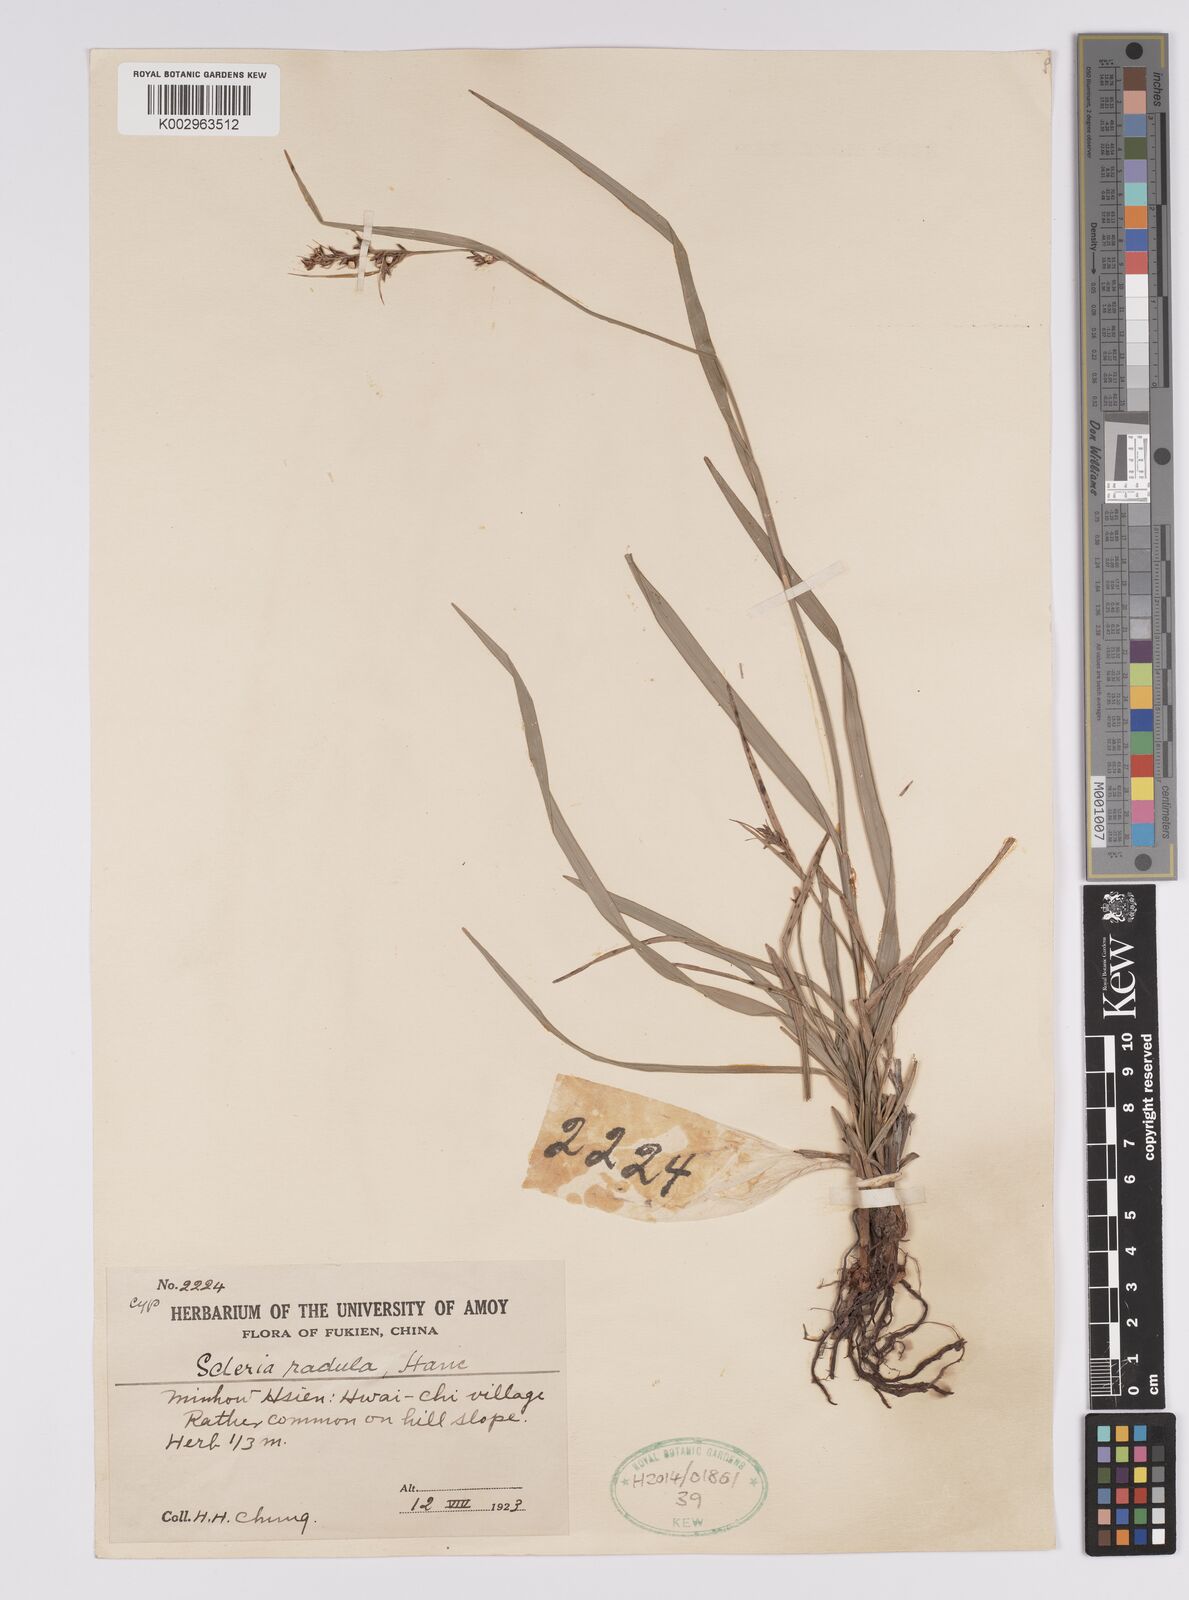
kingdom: Plantae
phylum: Tracheophyta
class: Liliopsida
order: Poales
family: Cyperaceae
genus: Scleria
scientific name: Scleria radula
